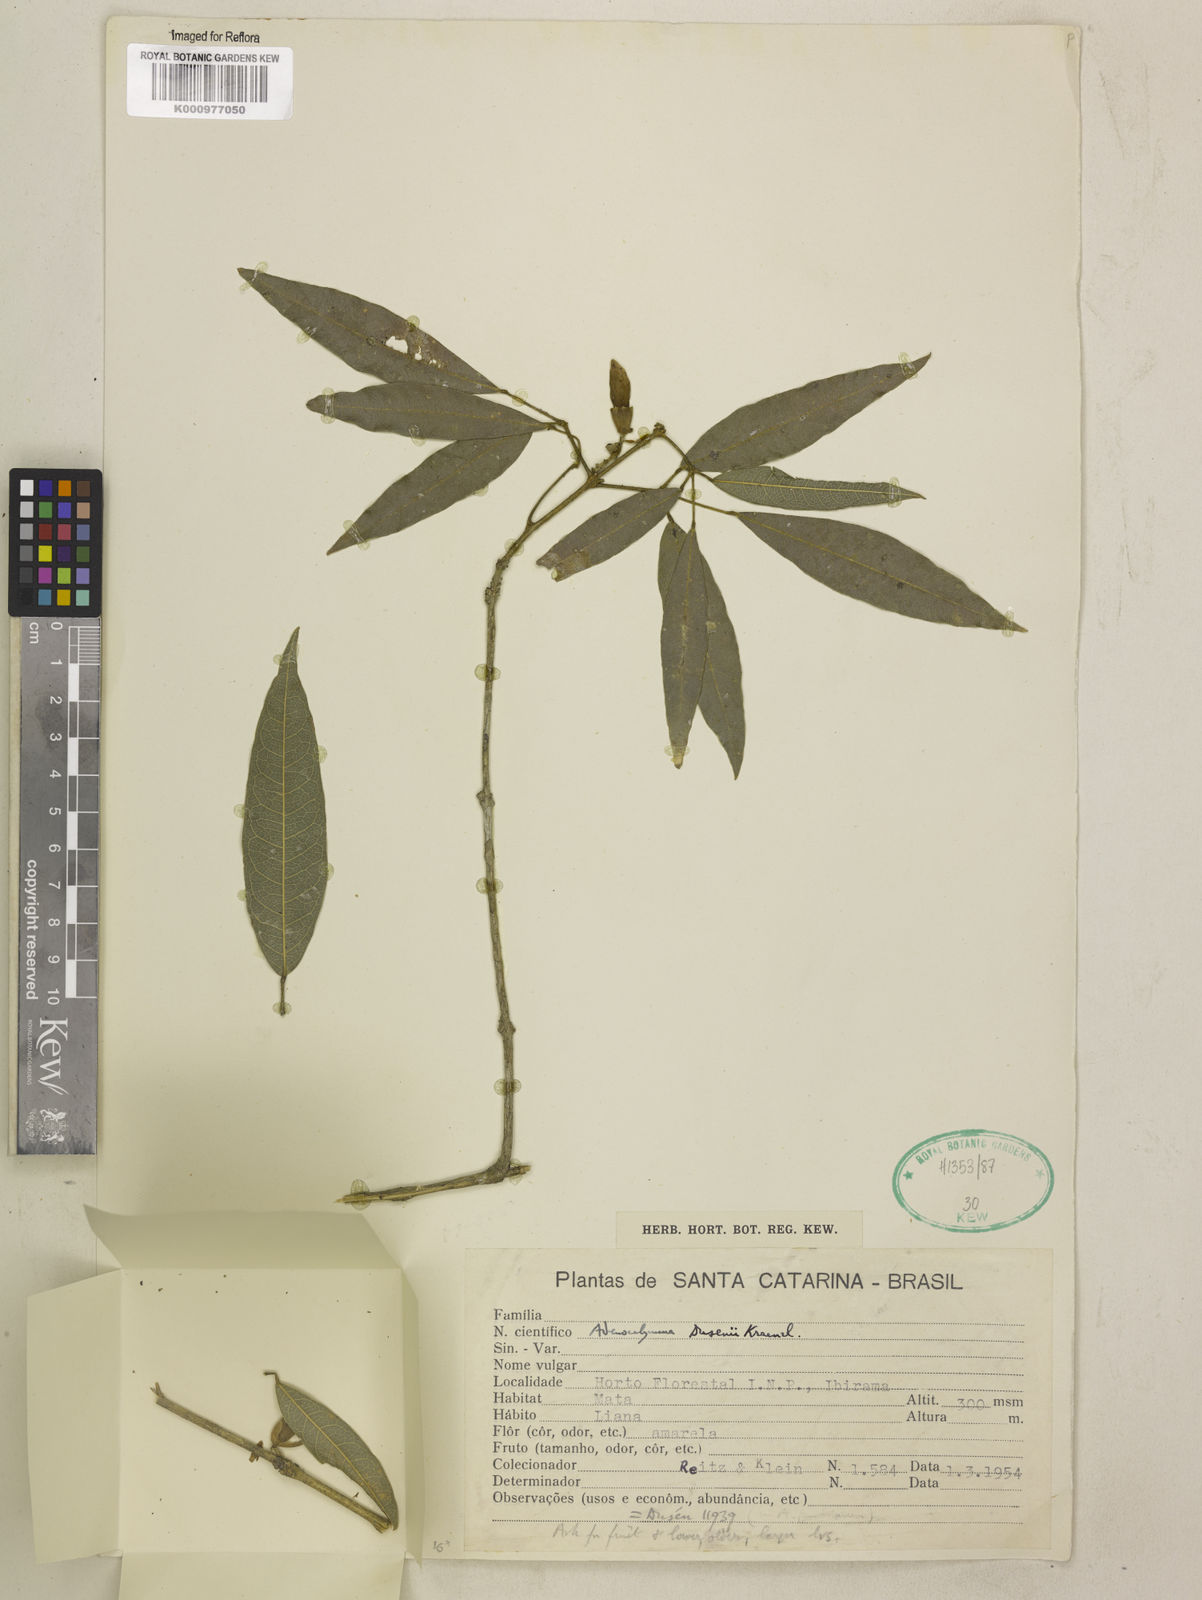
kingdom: Plantae
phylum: Tracheophyta
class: Magnoliopsida
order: Lamiales
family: Bignoniaceae
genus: Adenocalymma
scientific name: Adenocalymma dusenii
